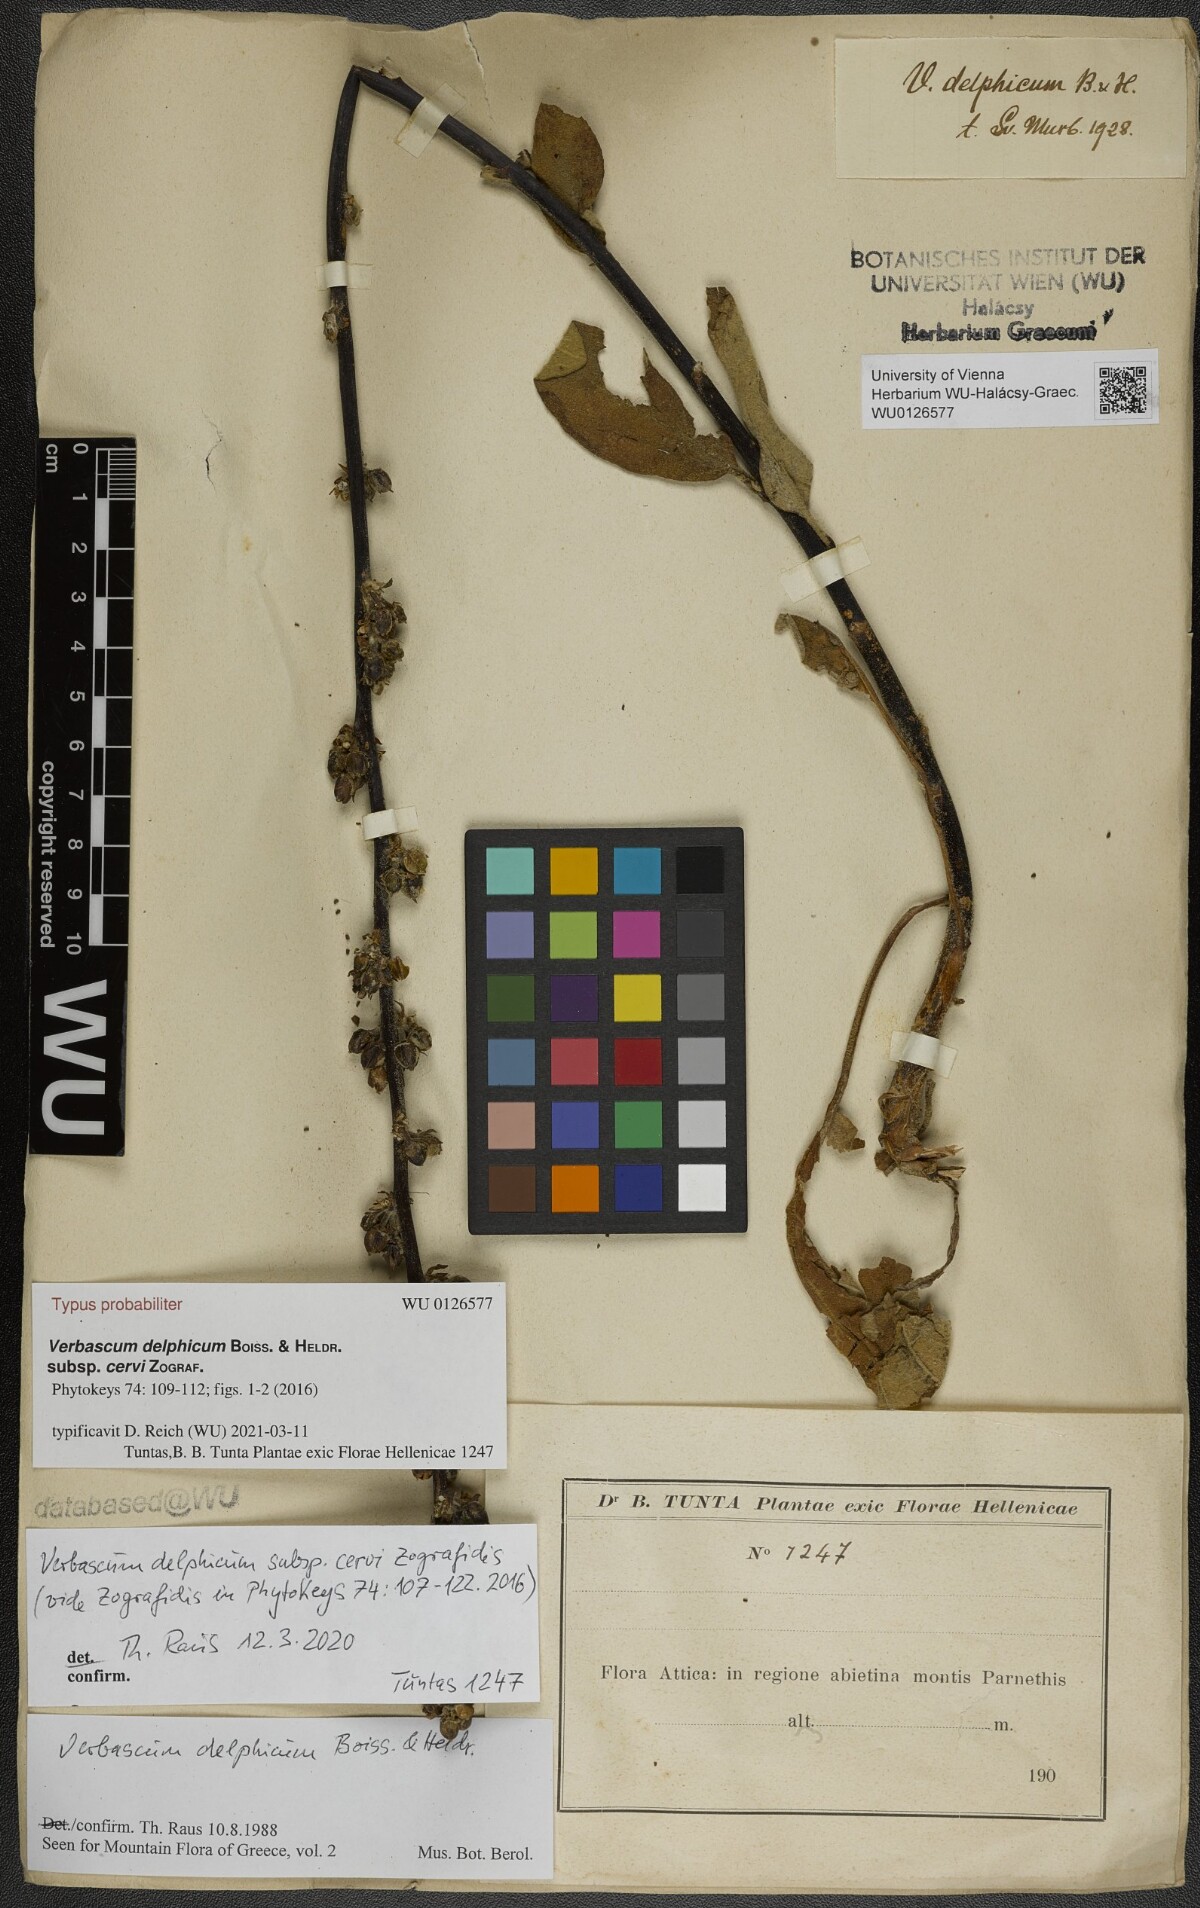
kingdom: Plantae
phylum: Tracheophyta
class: Magnoliopsida
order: Lamiales
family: Scrophulariaceae
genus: Verbascum
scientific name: Verbascum delphicum
